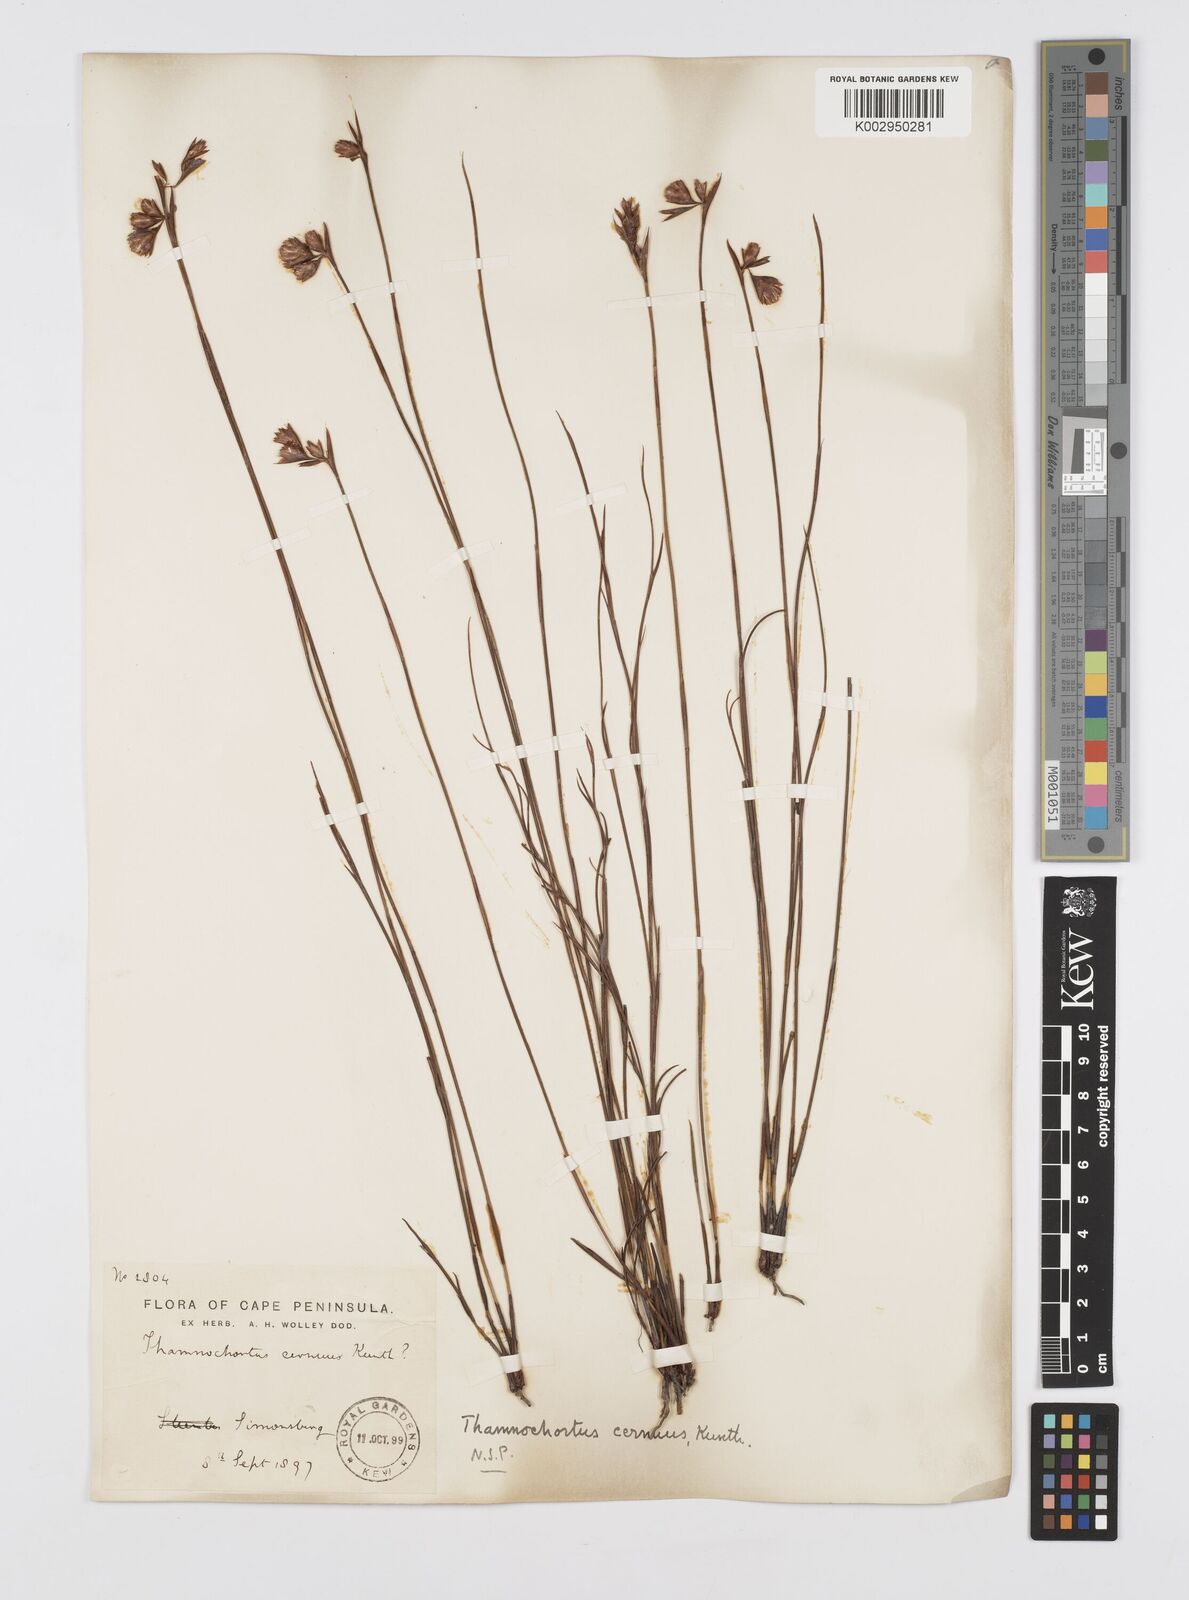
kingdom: Plantae
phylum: Tracheophyta
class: Liliopsida
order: Poales
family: Restionaceae
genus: Staberoha
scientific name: Staberoha cernua
